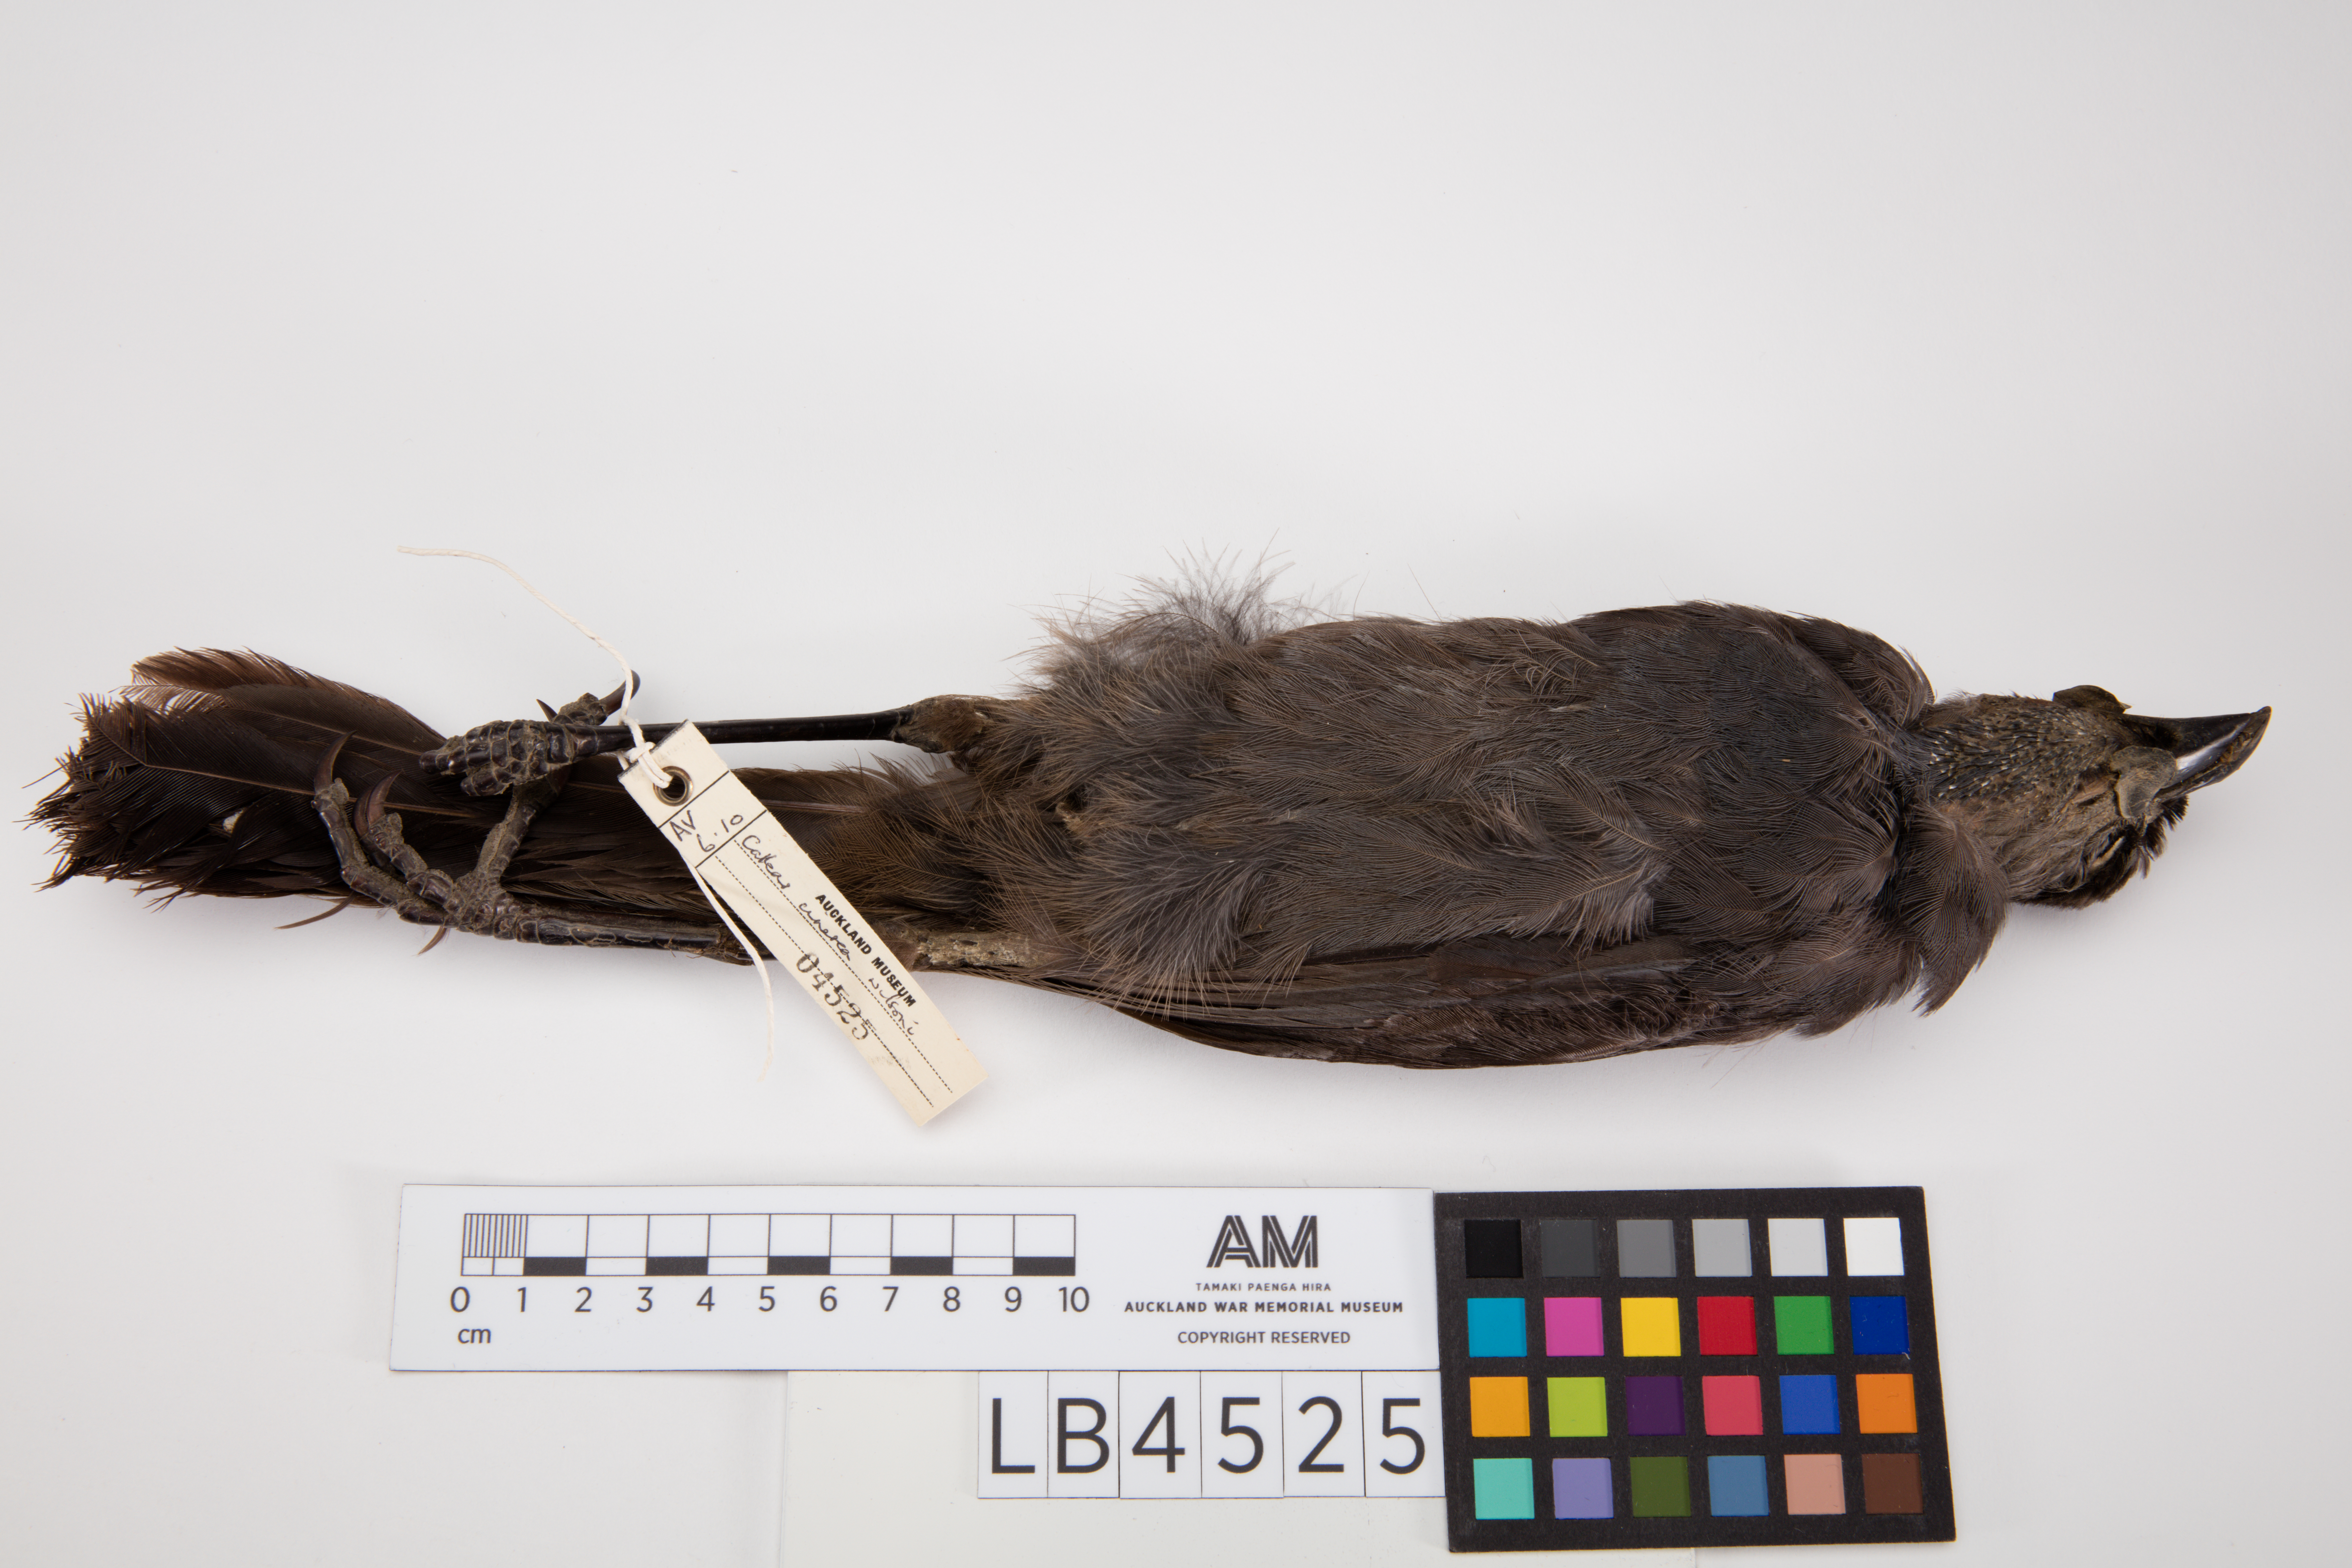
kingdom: Animalia
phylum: Chordata
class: Aves
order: Passeriformes
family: Callaeatidae
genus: Callaeas
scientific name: Callaeas cinereus
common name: South island kokako
